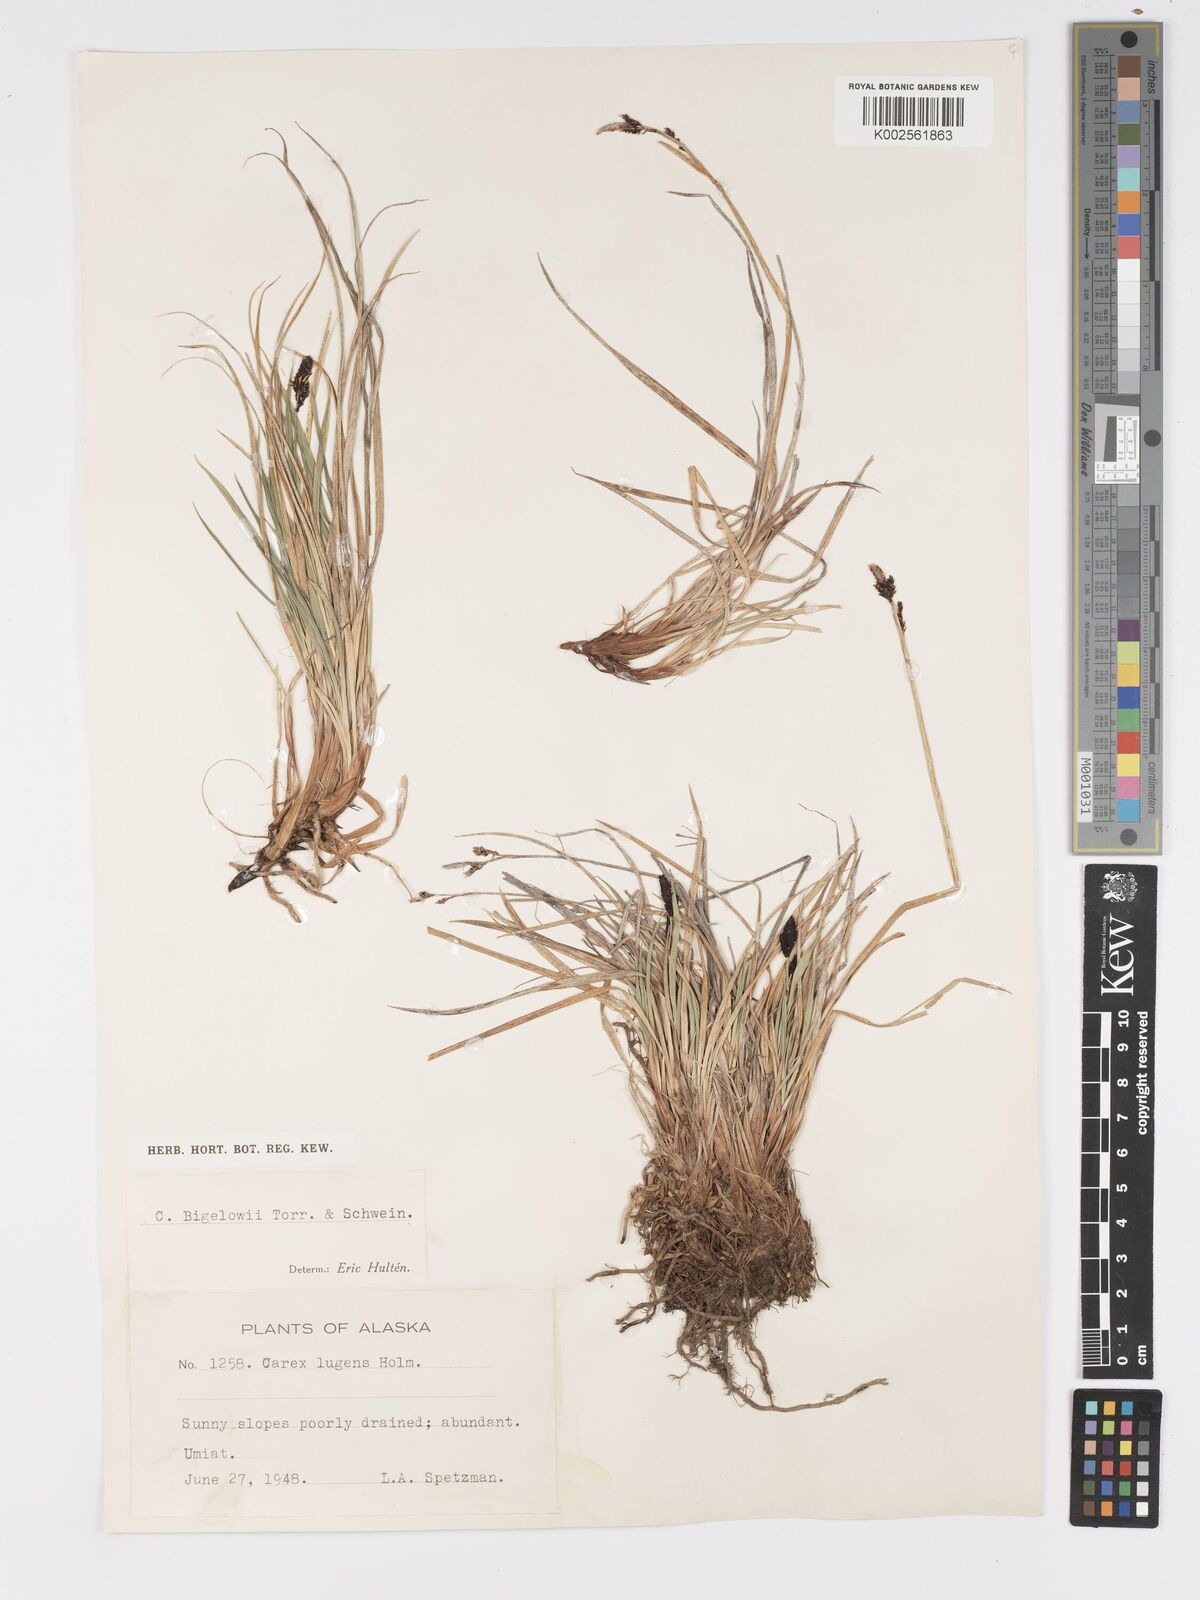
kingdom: Plantae
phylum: Tracheophyta
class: Liliopsida
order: Poales
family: Cyperaceae
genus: Carex
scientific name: Carex bigelowii
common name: Stiff sedge
